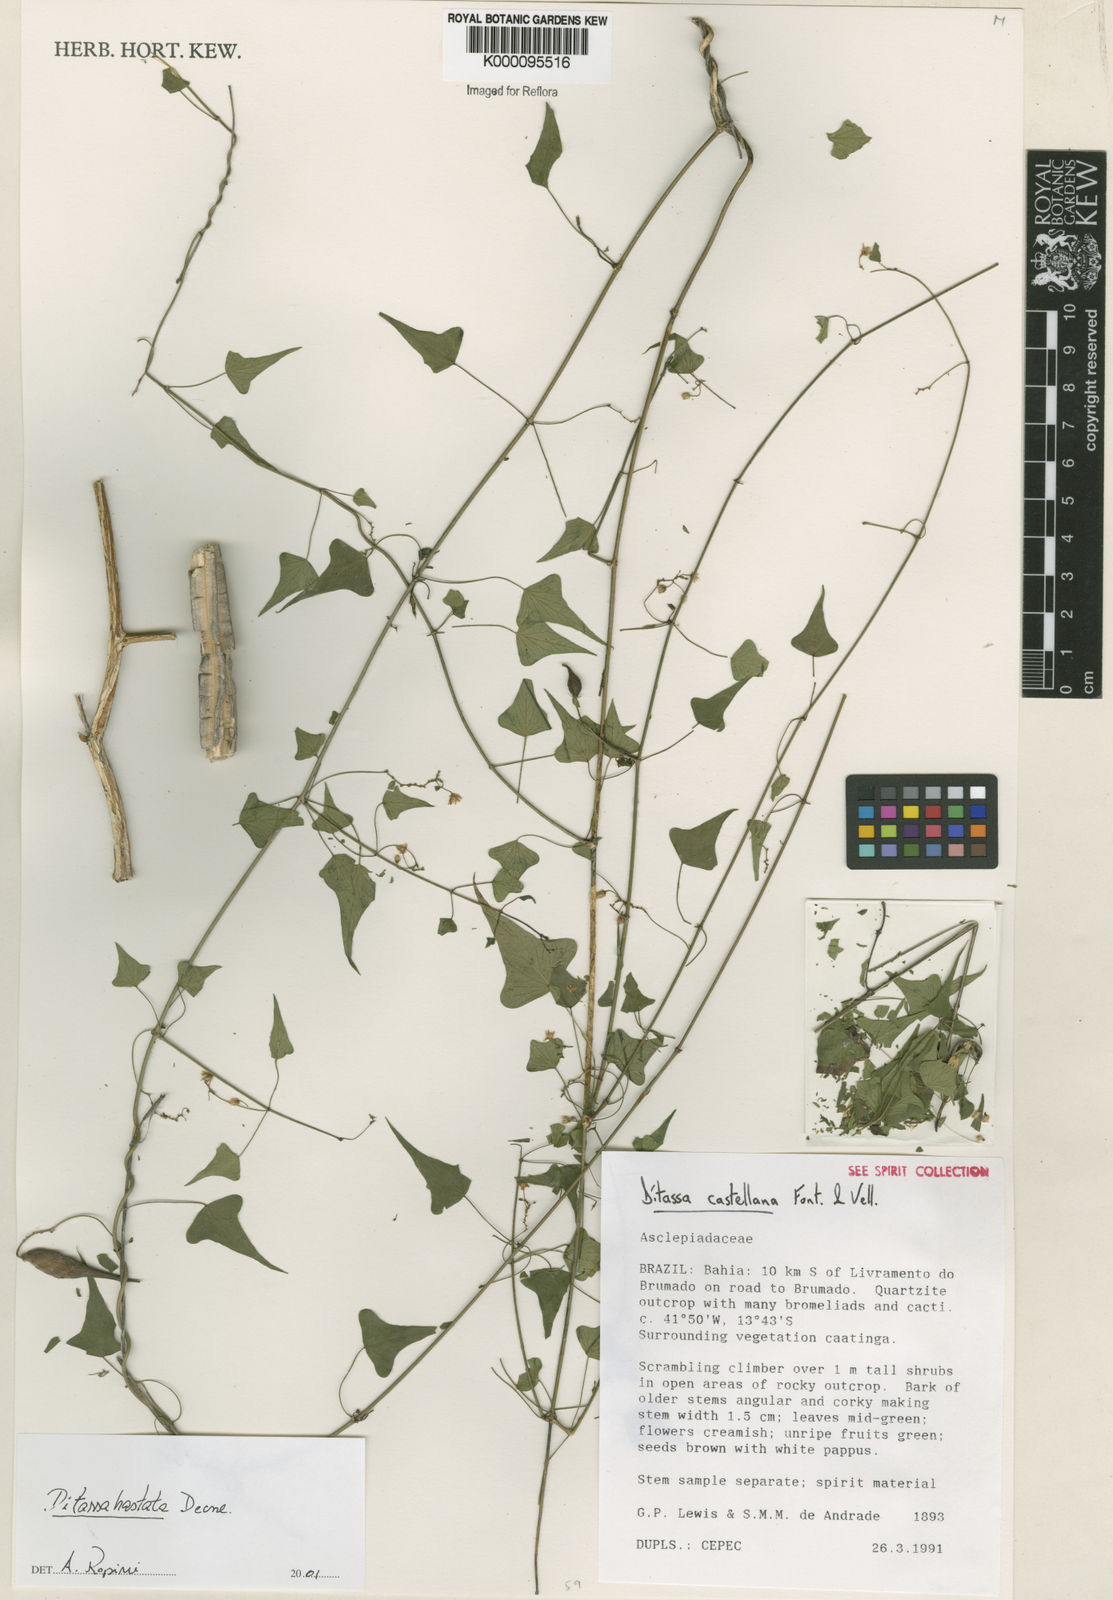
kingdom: Plantae
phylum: Tracheophyta
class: Magnoliopsida
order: Gentianales
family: Apocynaceae
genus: Ditassa
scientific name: Ditassa hastata
